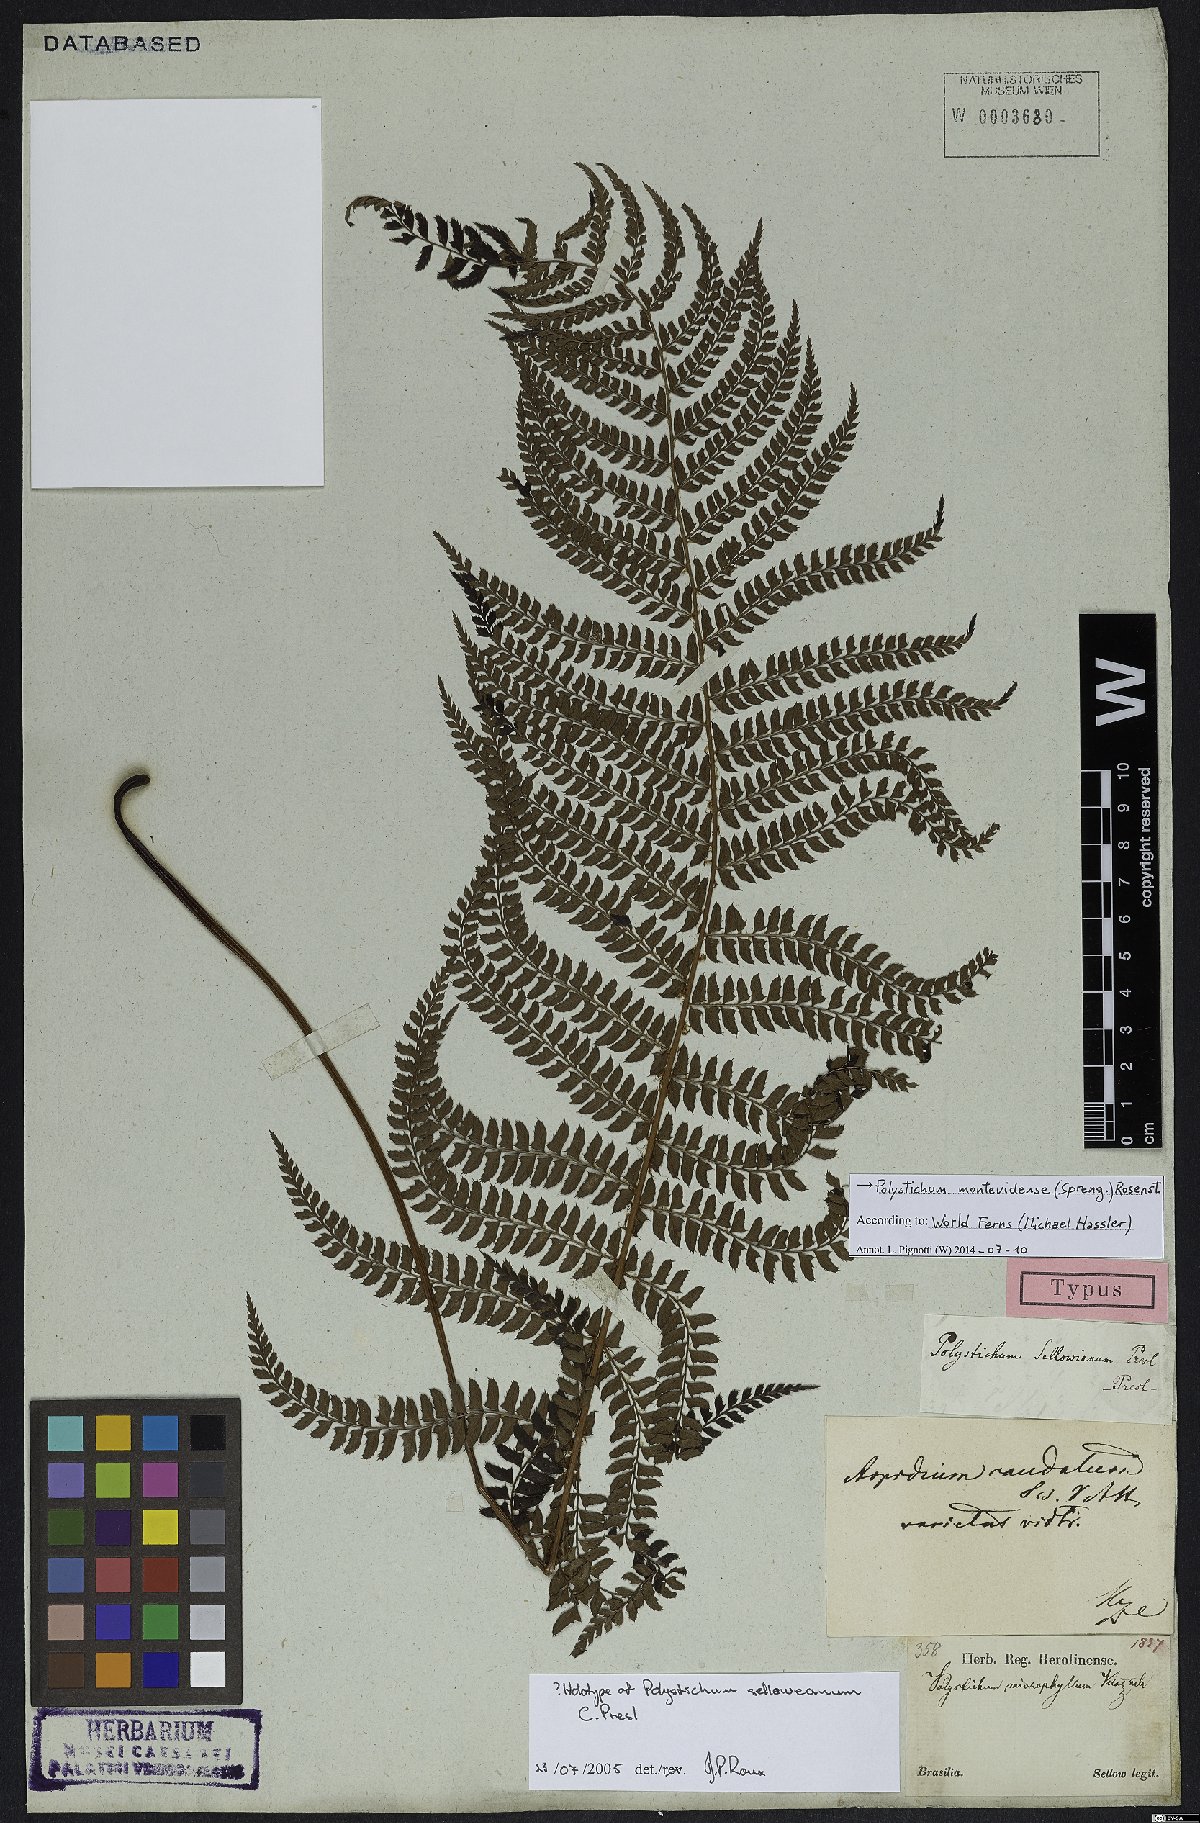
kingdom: Plantae
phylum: Tracheophyta
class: Polypodiopsida
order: Polypodiales
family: Dryopteridaceae
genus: Polystichum
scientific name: Polystichum montevidense
